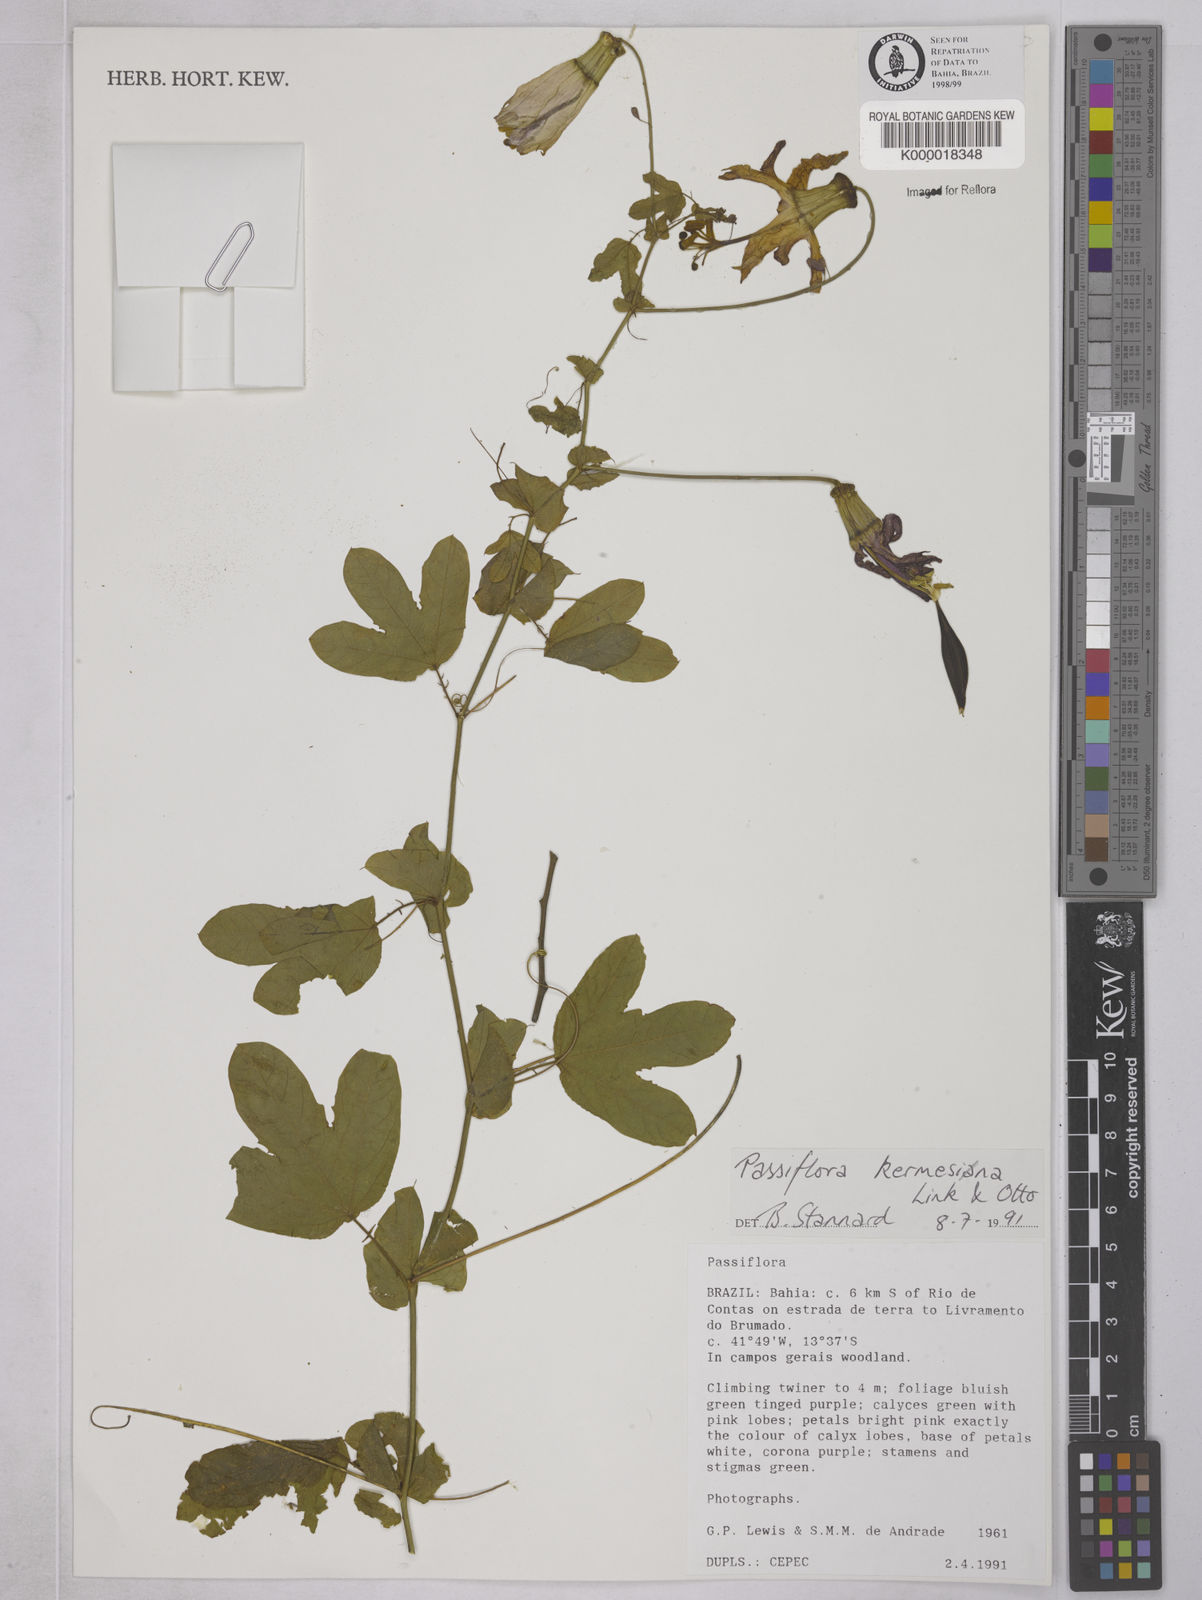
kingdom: Plantae
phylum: Tracheophyta
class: Magnoliopsida
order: Malpighiales
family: Passifloraceae
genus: Passiflora
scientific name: Passiflora kermesina
